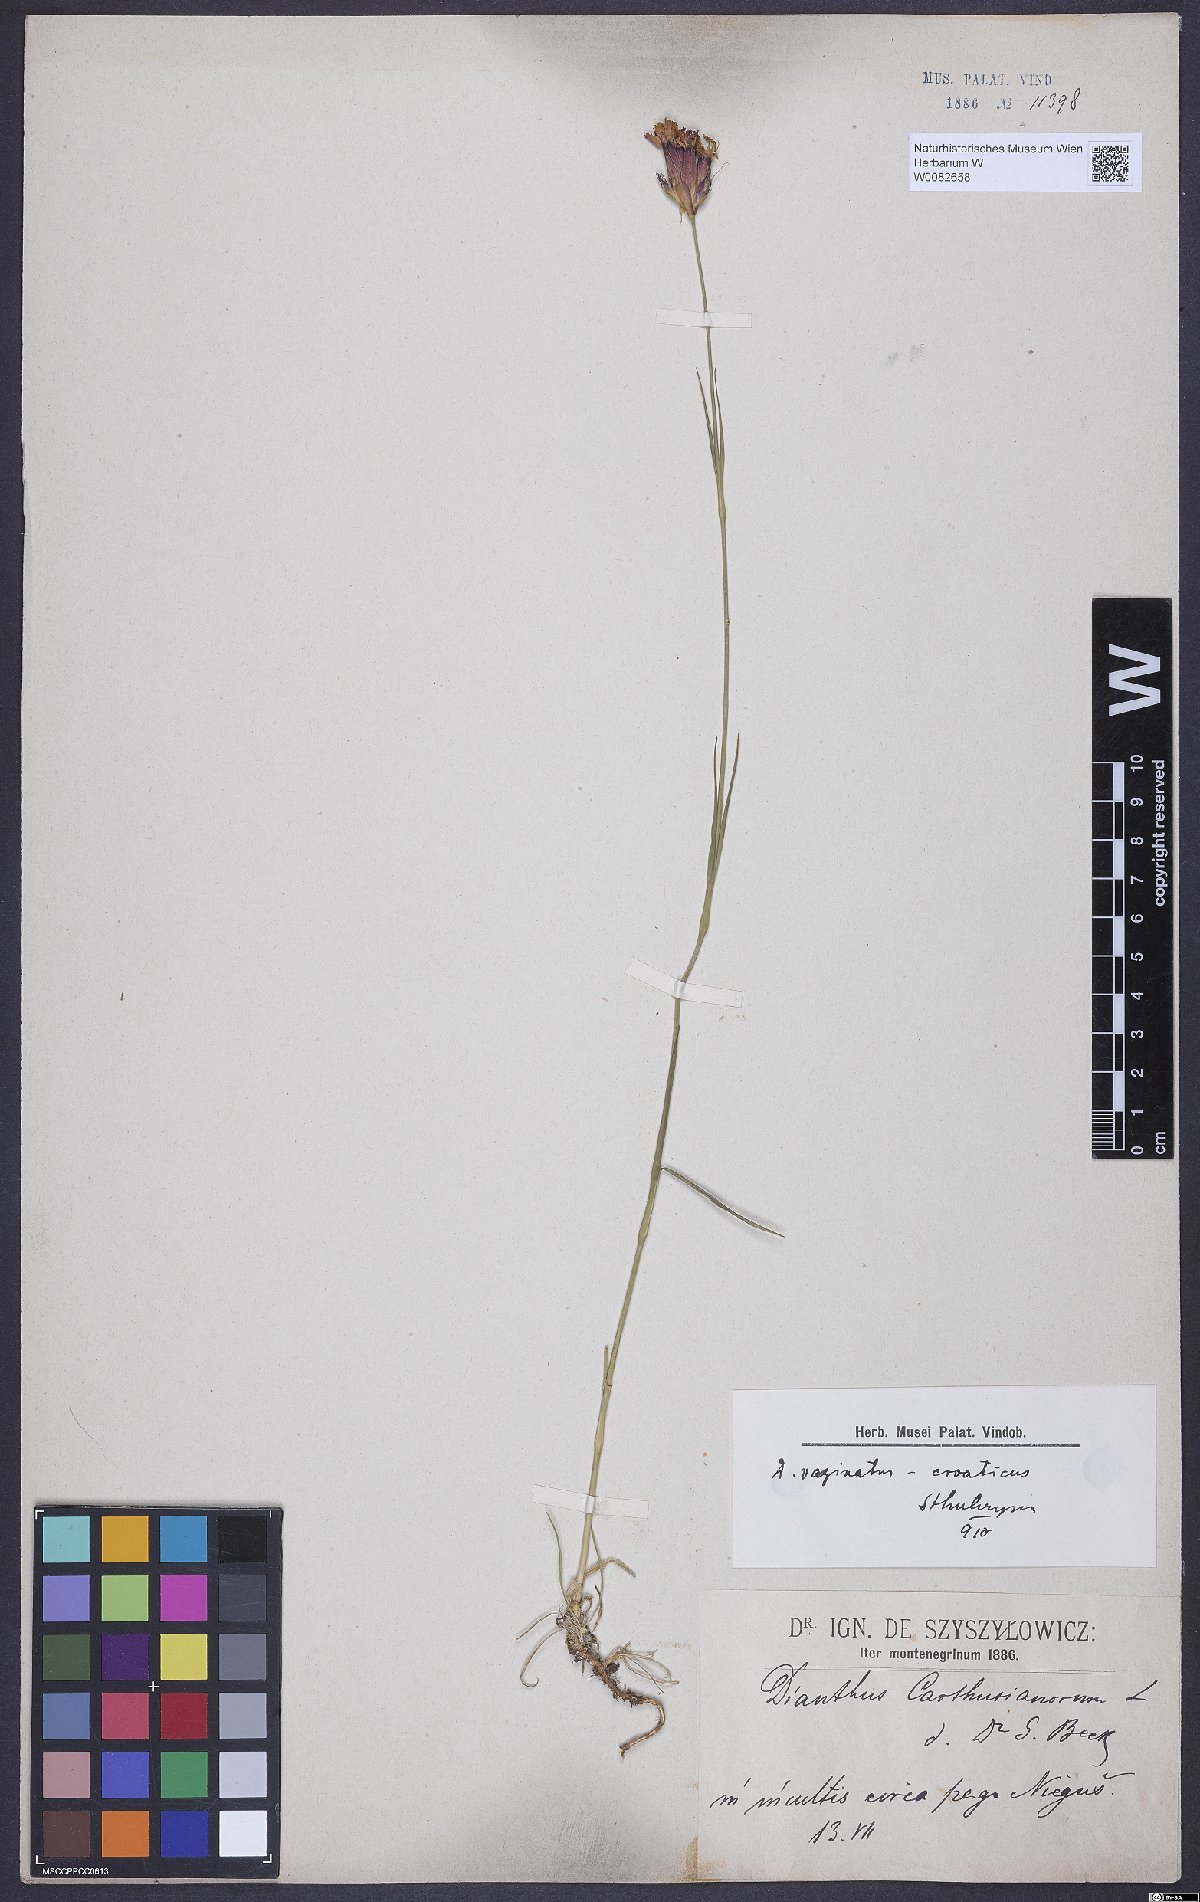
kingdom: Plantae
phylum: Tracheophyta
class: Magnoliopsida
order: Caryophyllales
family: Caryophyllaceae
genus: Dianthus
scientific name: Dianthus carthusianorum
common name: Carthusian pink
